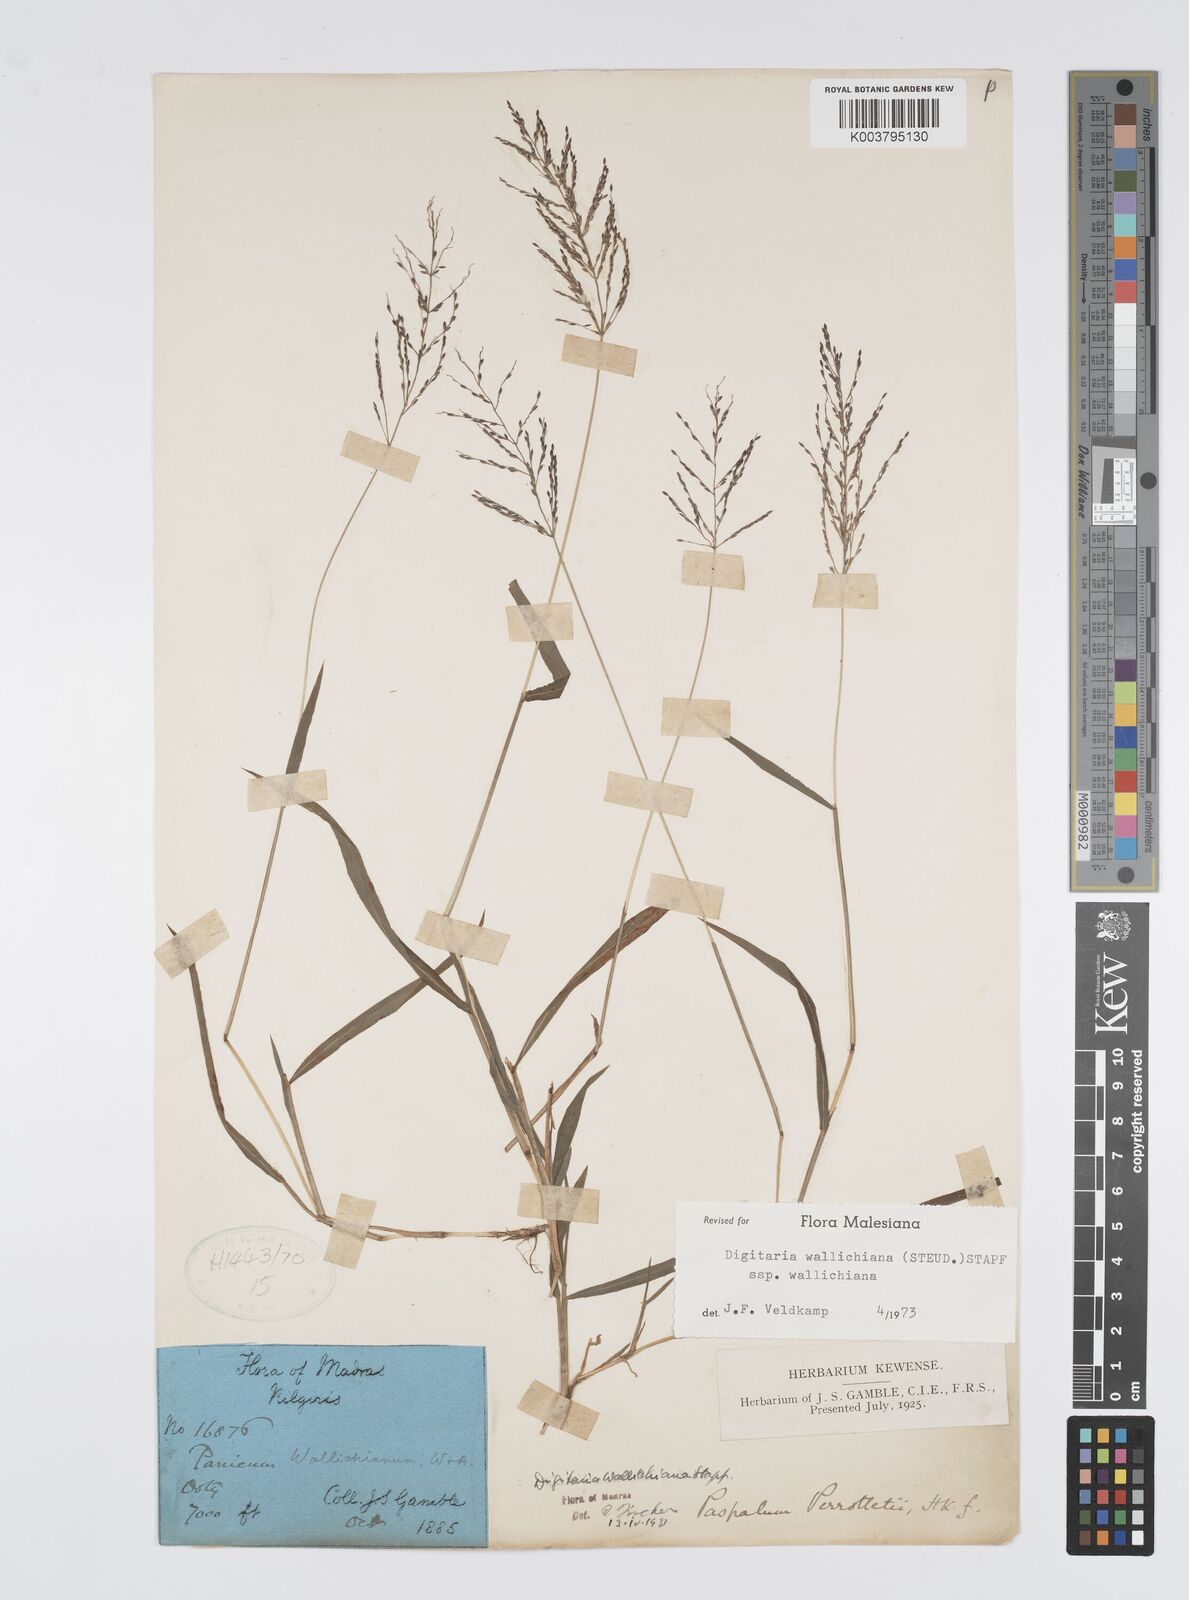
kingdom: Plantae
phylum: Tracheophyta
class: Liliopsida
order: Poales
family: Poaceae
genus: Digitaria
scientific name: Digitaria wallichiana
